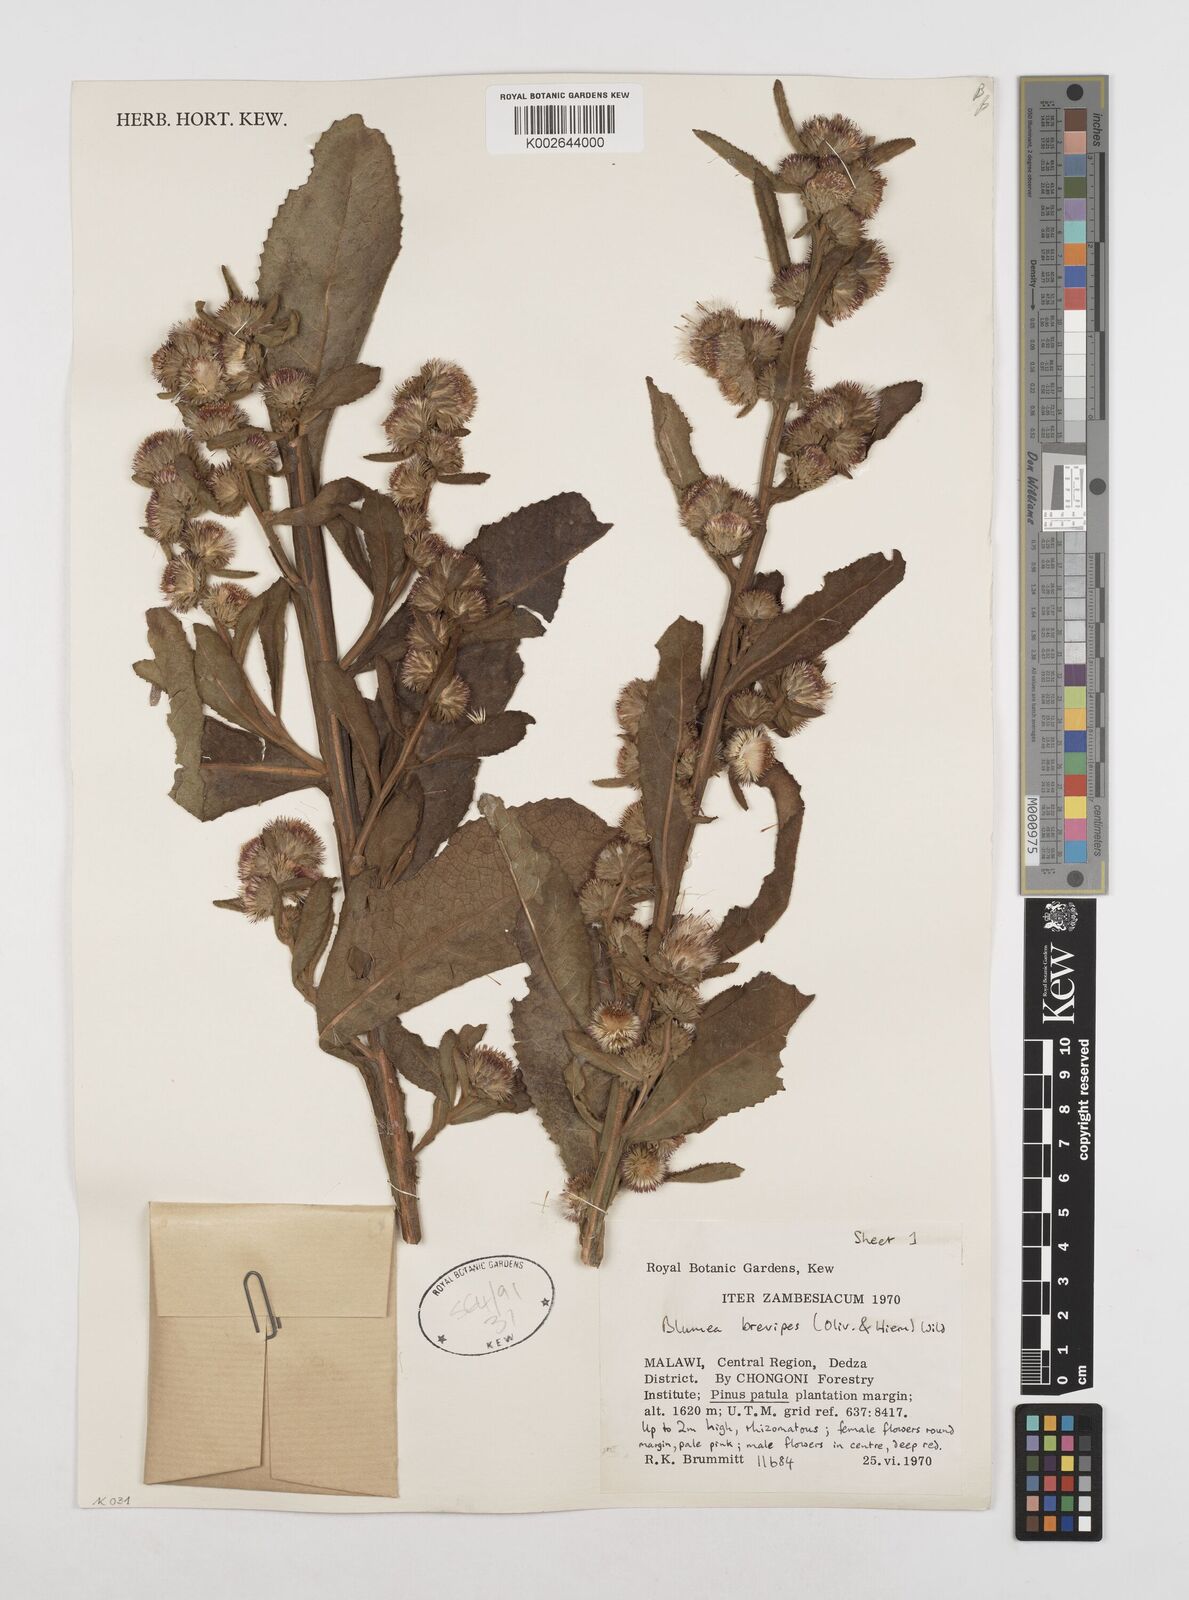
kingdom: Plantae
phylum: Tracheophyta
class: Magnoliopsida
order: Asterales
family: Asteraceae
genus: Laggera
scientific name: Laggera brevipes
